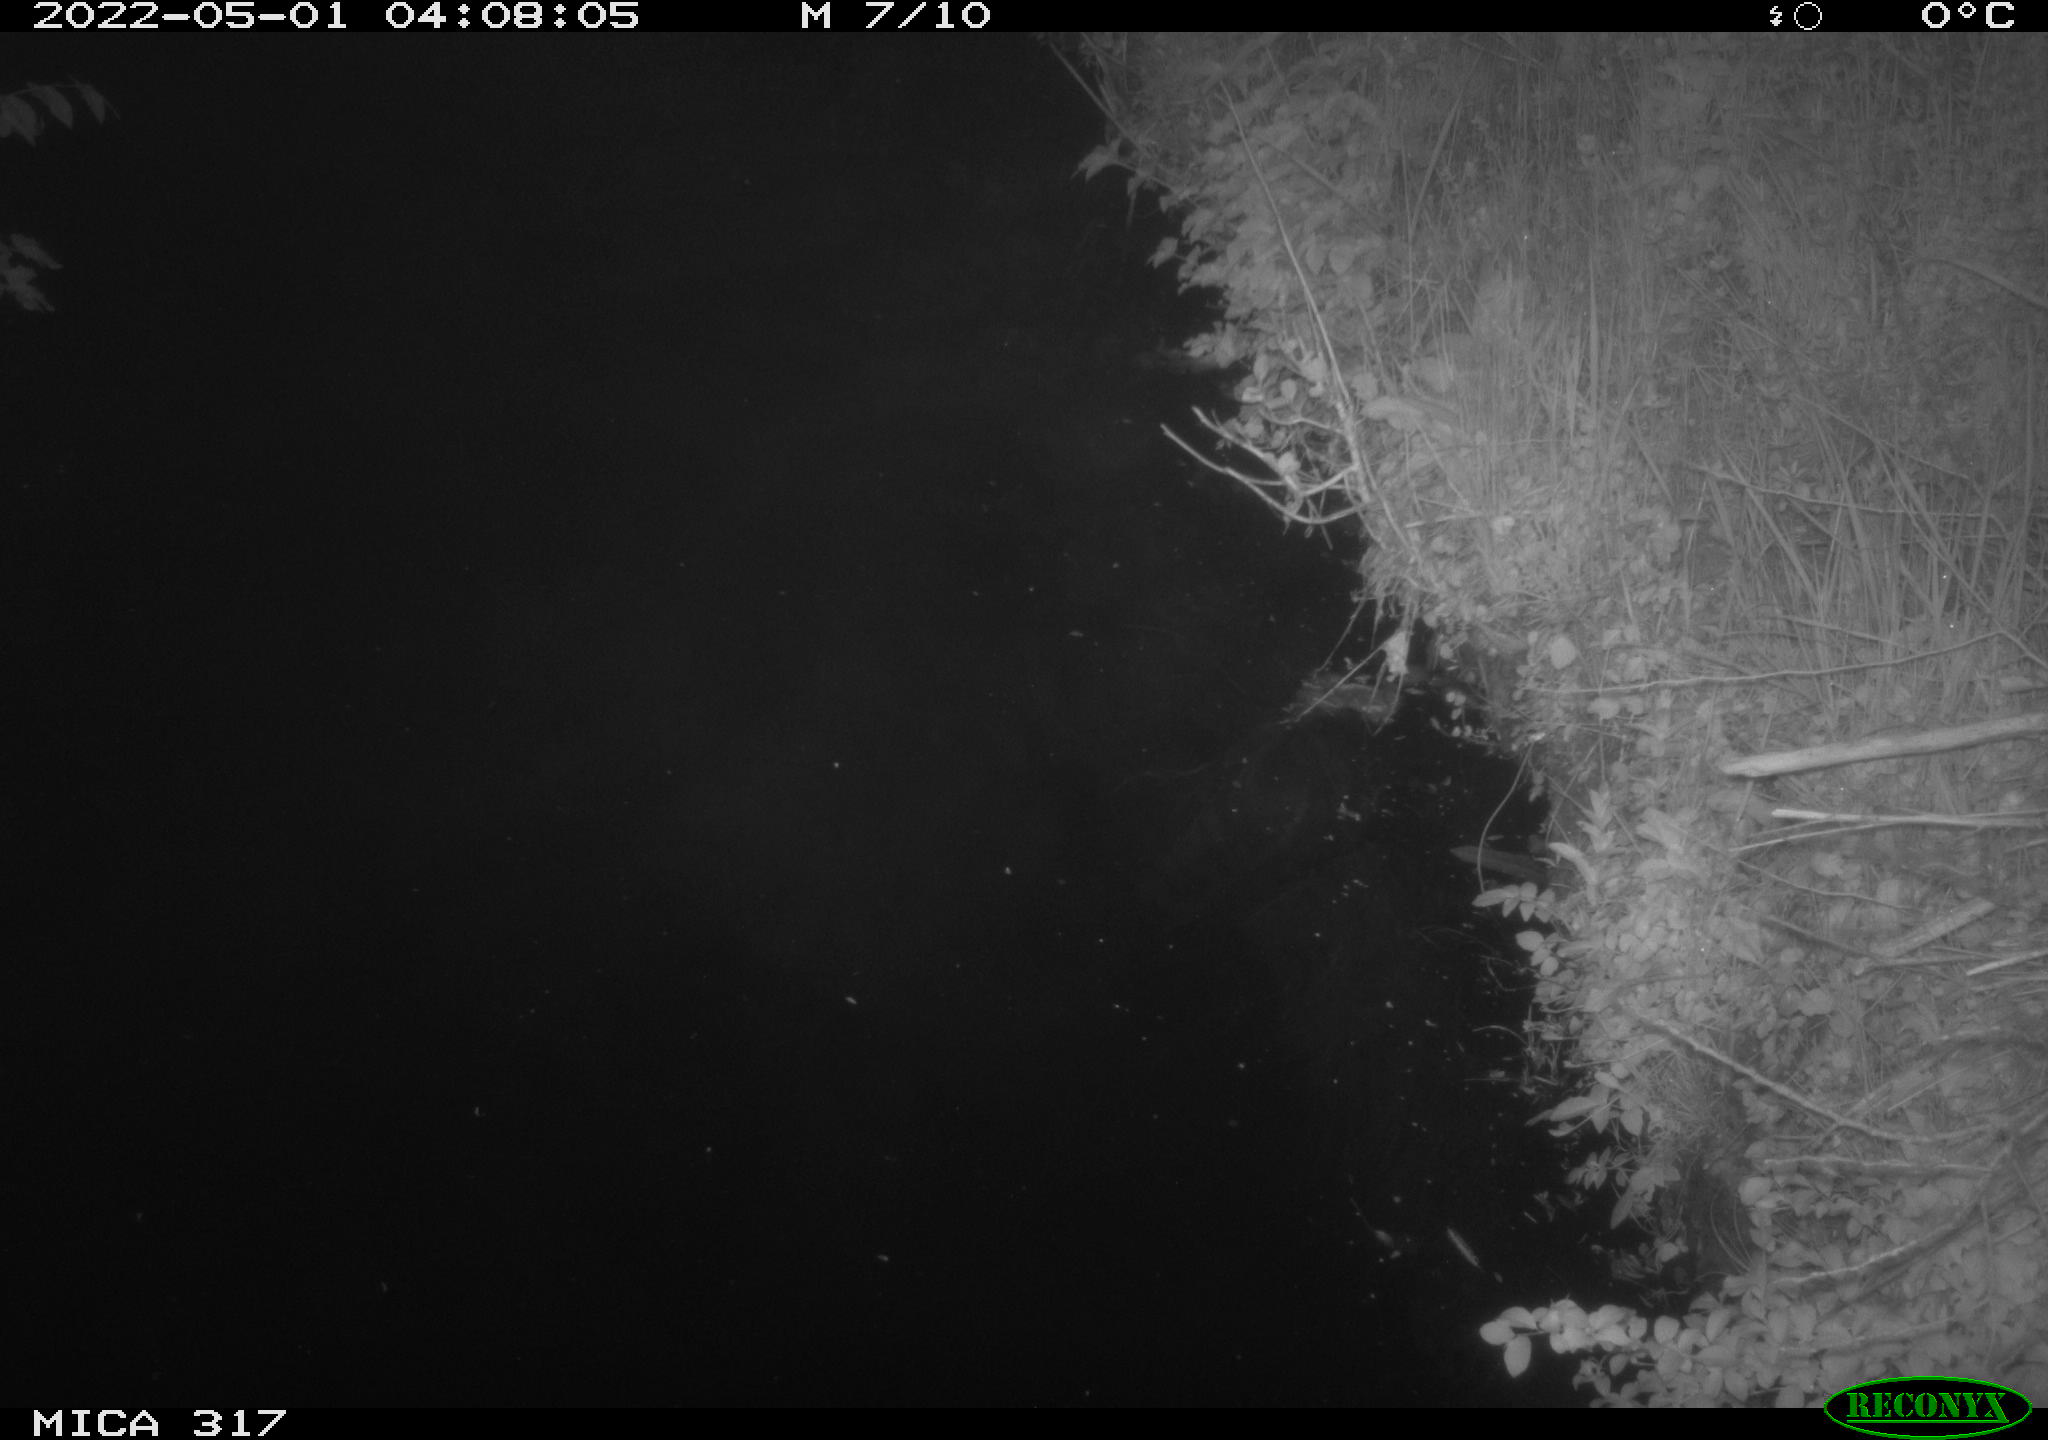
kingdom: Animalia
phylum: Chordata
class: Aves
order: Anseriformes
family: Anatidae
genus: Anas
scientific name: Anas platyrhynchos
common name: Mallard
